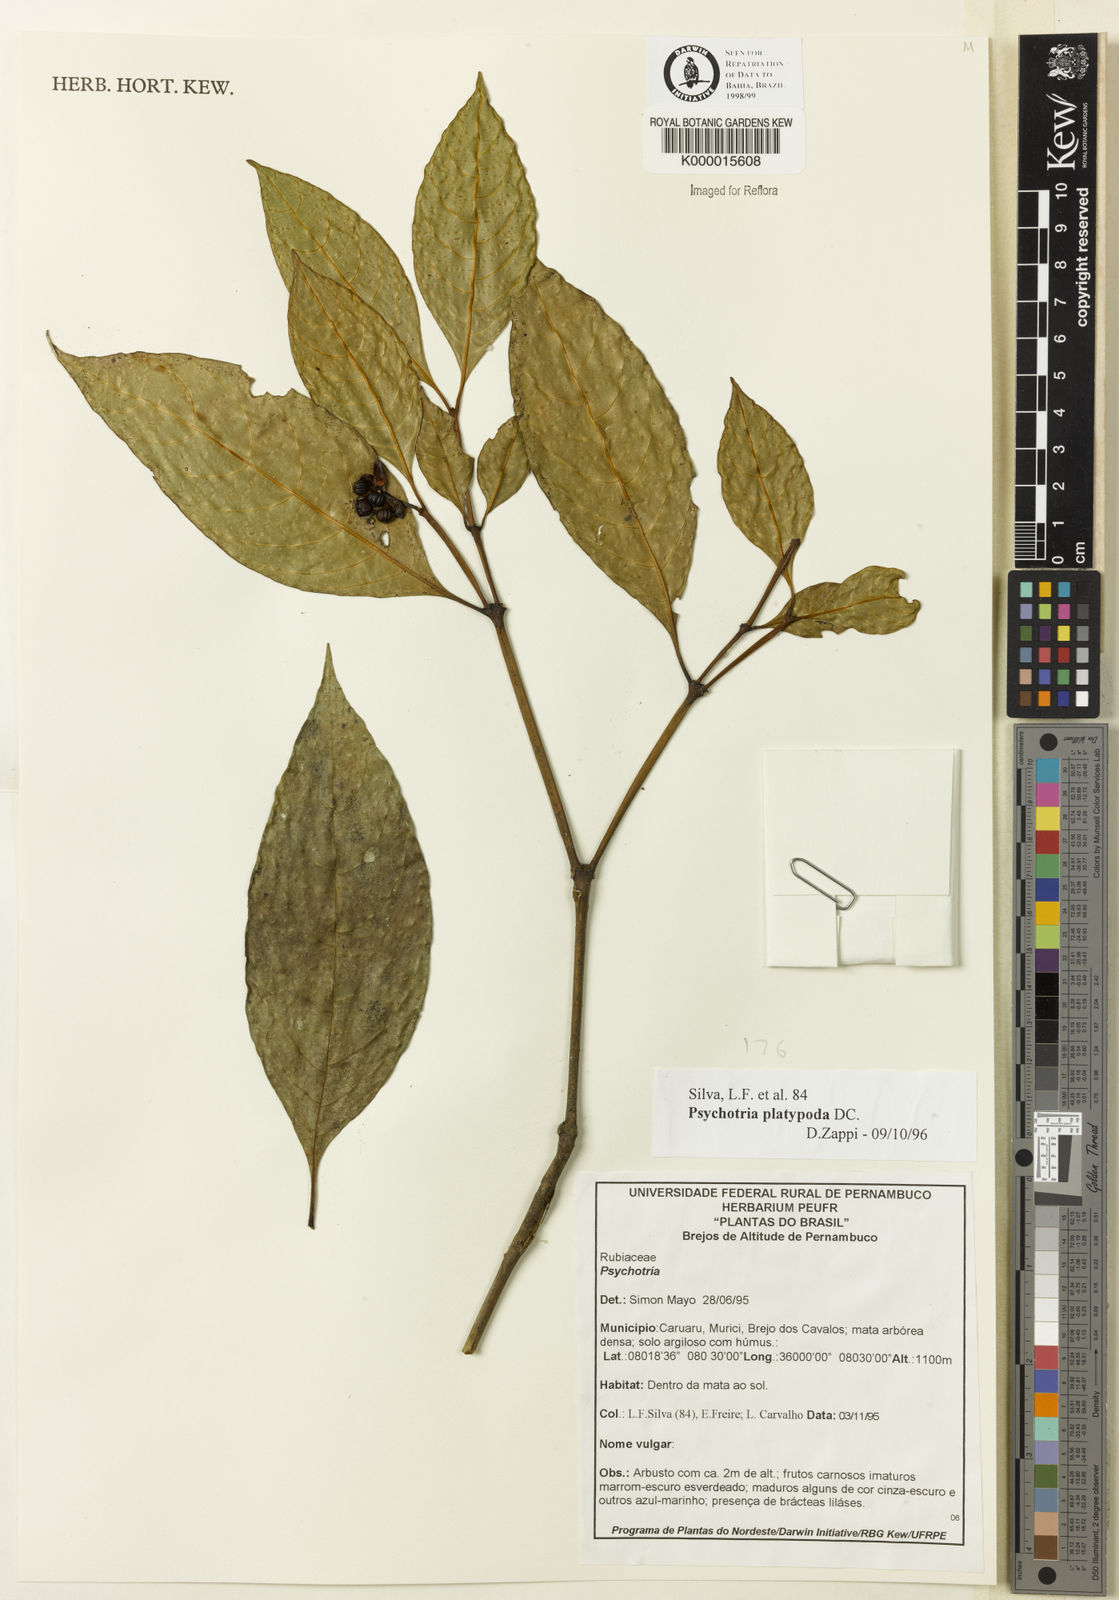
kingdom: Plantae
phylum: Tracheophyta
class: Magnoliopsida
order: Gentianales
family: Rubiaceae
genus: Palicourea
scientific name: Palicourea dichotoma
